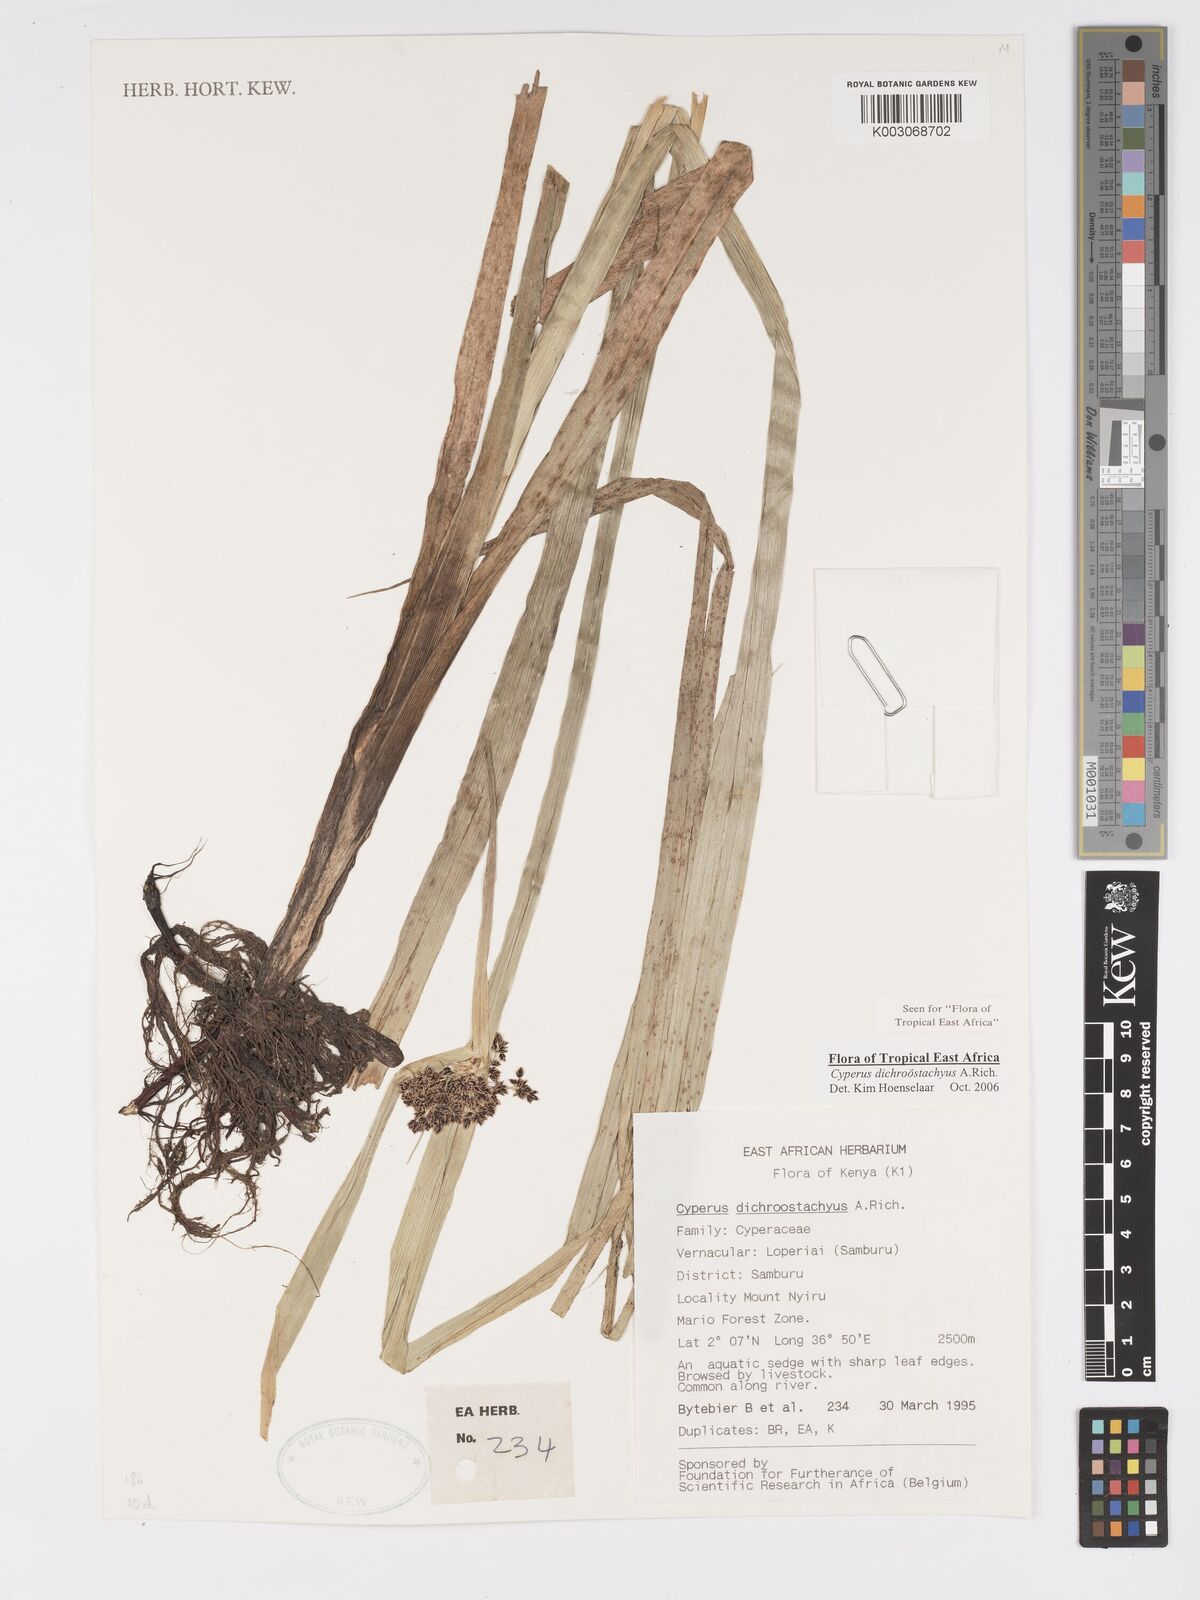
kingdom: Plantae
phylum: Tracheophyta
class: Liliopsida
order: Poales
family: Cyperaceae
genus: Cyperus
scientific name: Cyperus dichrostachyus
